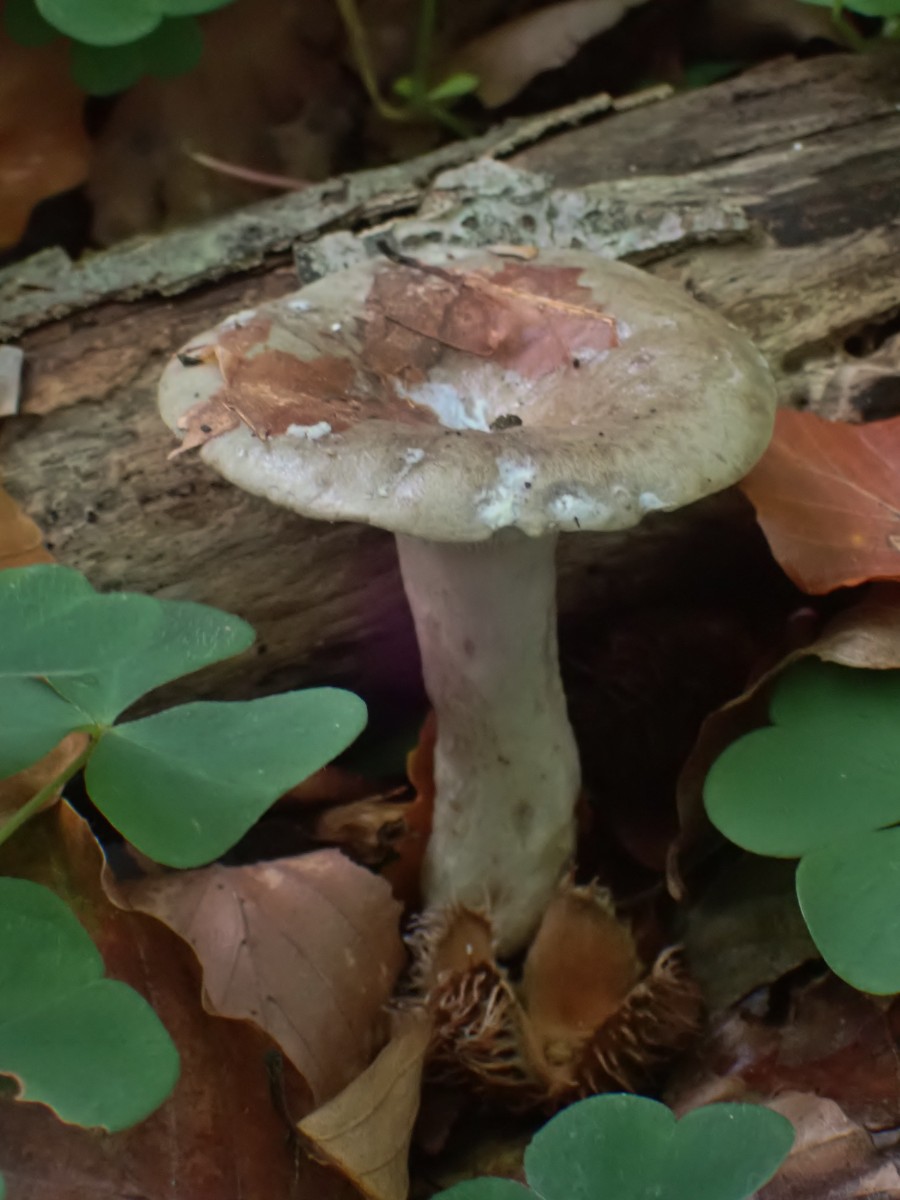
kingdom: Fungi
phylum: Basidiomycota
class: Agaricomycetes
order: Russulales
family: Russulaceae
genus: Lactarius
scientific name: Lactarius blennius
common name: dråbeplettet mælkehat
